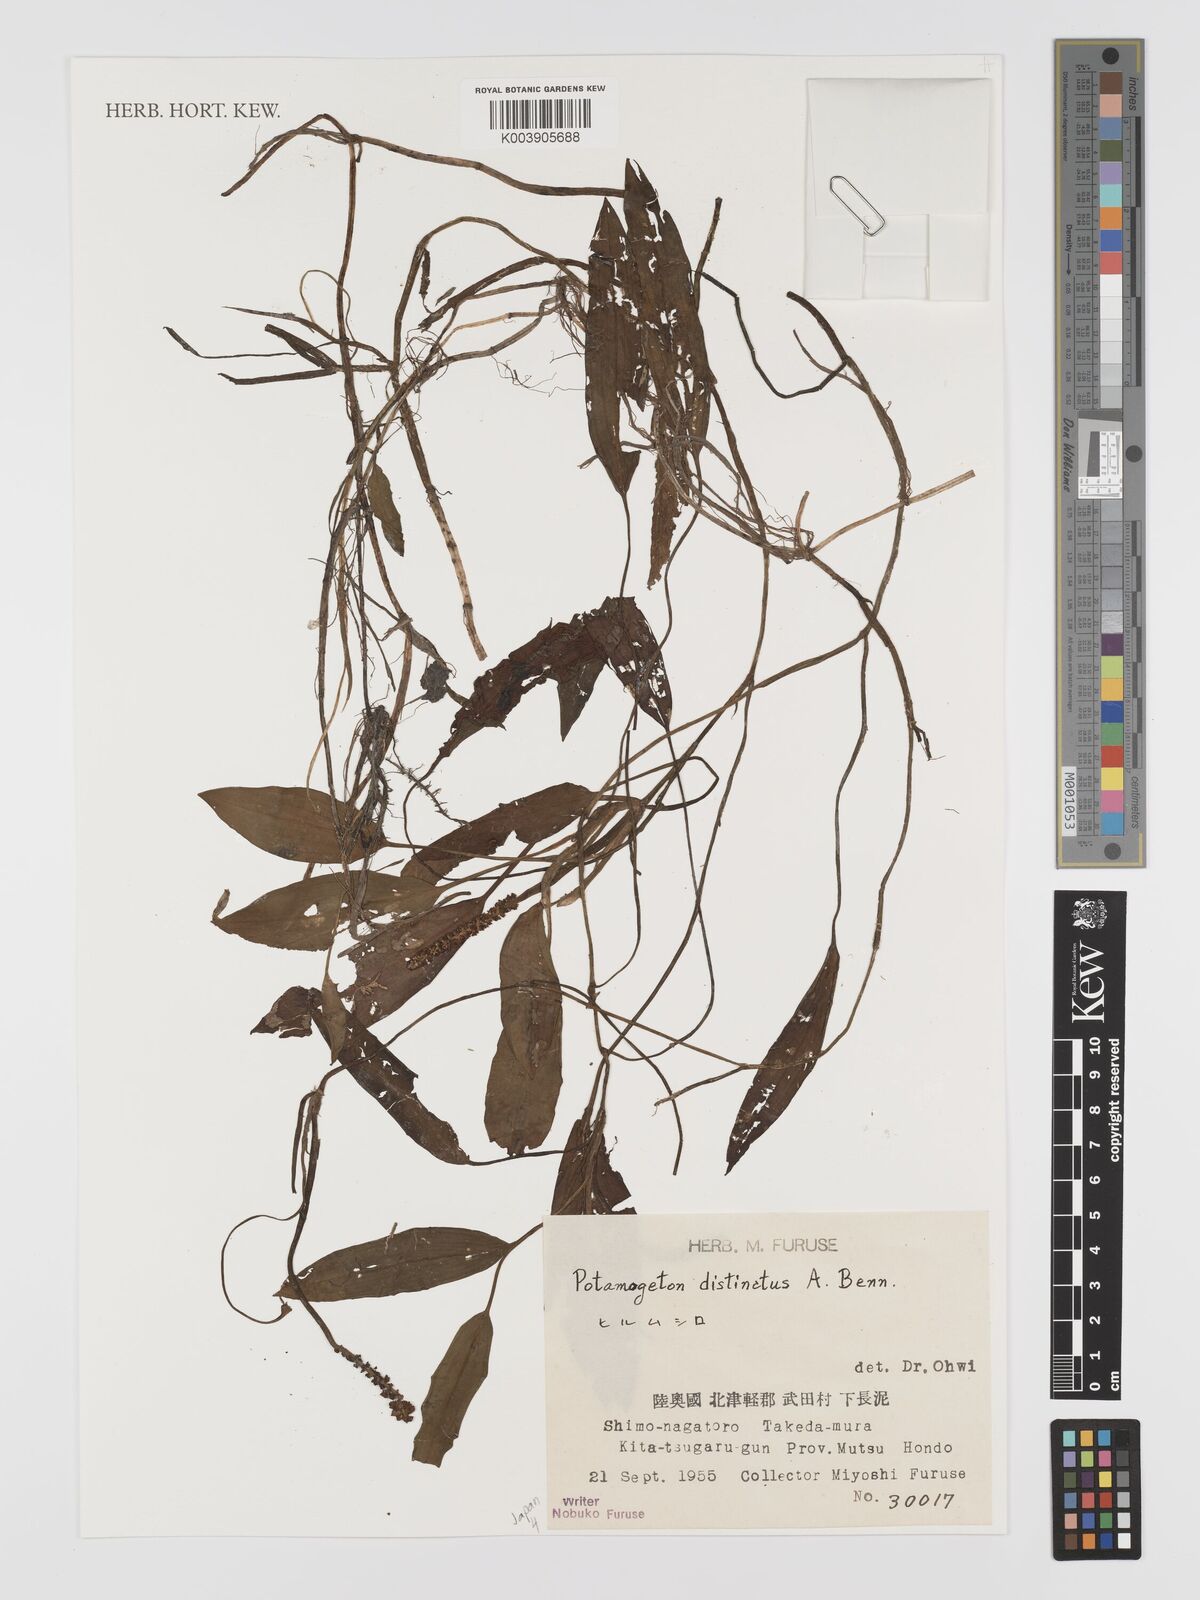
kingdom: Plantae
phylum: Tracheophyta
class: Liliopsida
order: Alismatales
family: Potamogetonaceae
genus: Potamogeton
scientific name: Potamogeton distinctus
